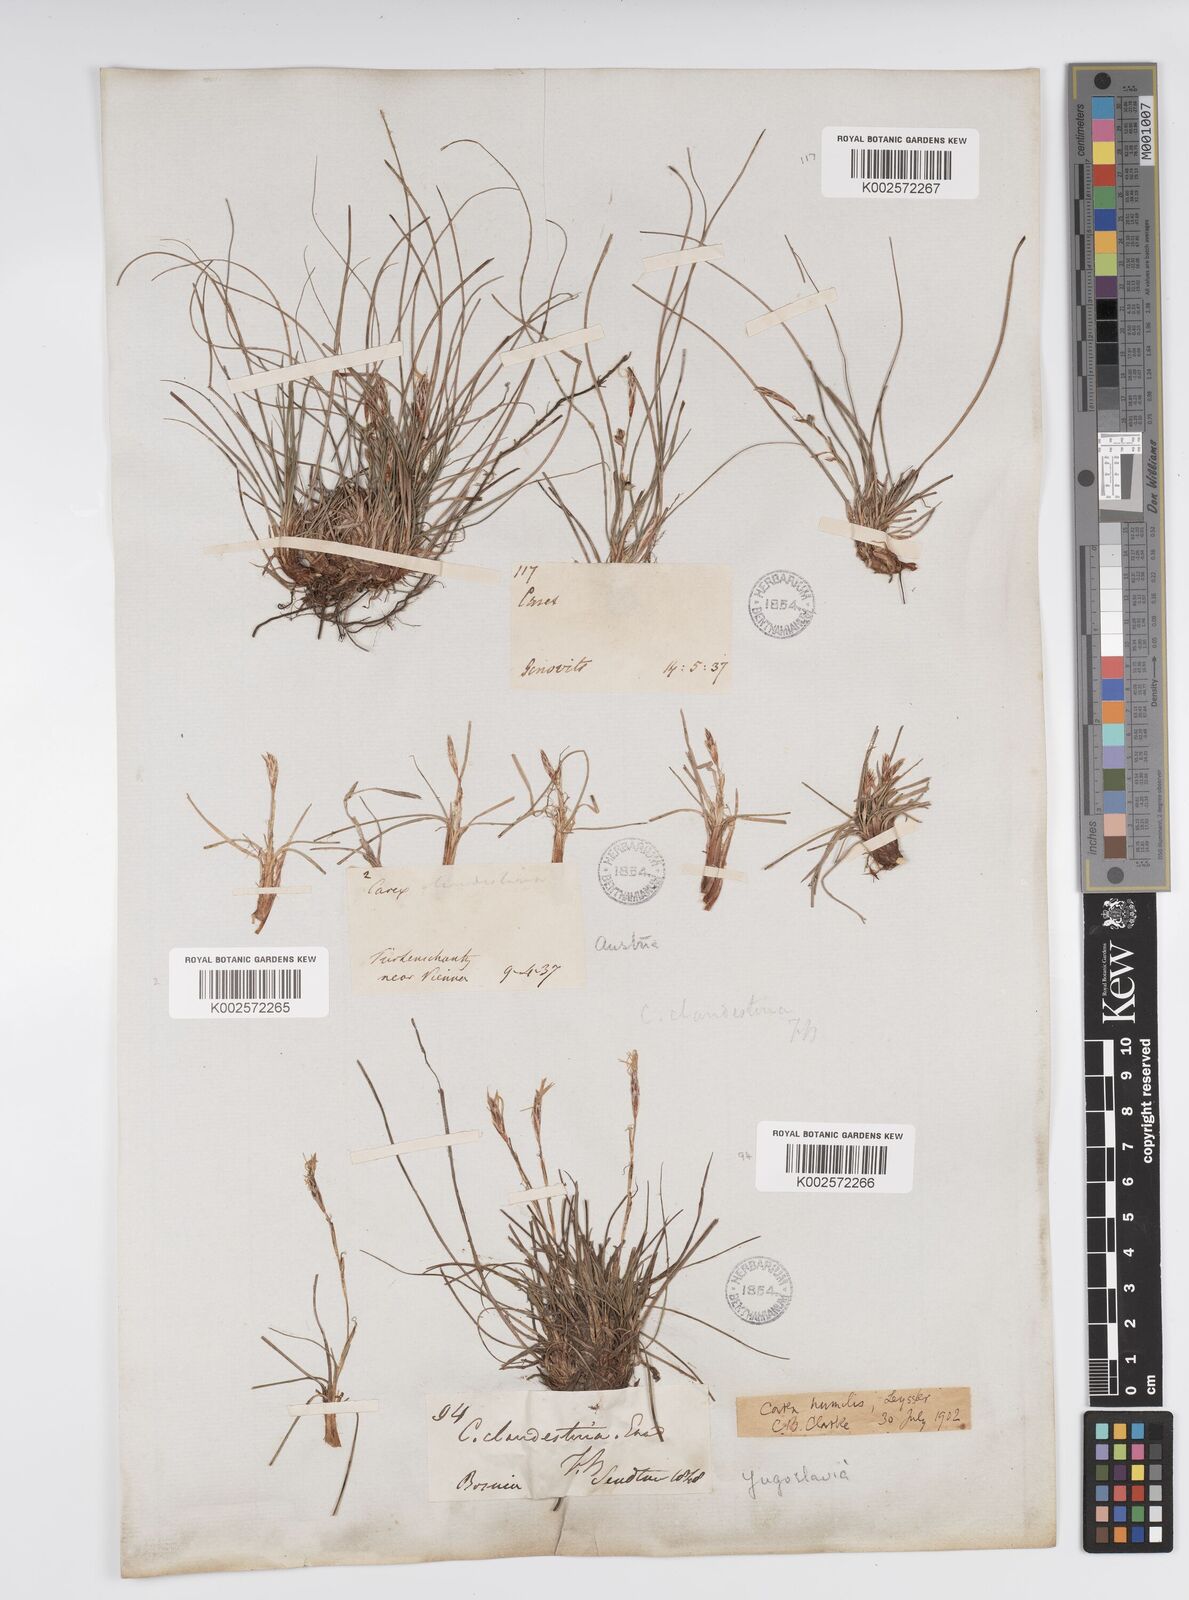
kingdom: Plantae
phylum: Tracheophyta
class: Liliopsida
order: Poales
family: Cyperaceae
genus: Carex
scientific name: Carex humilis
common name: Dwarf sedge
